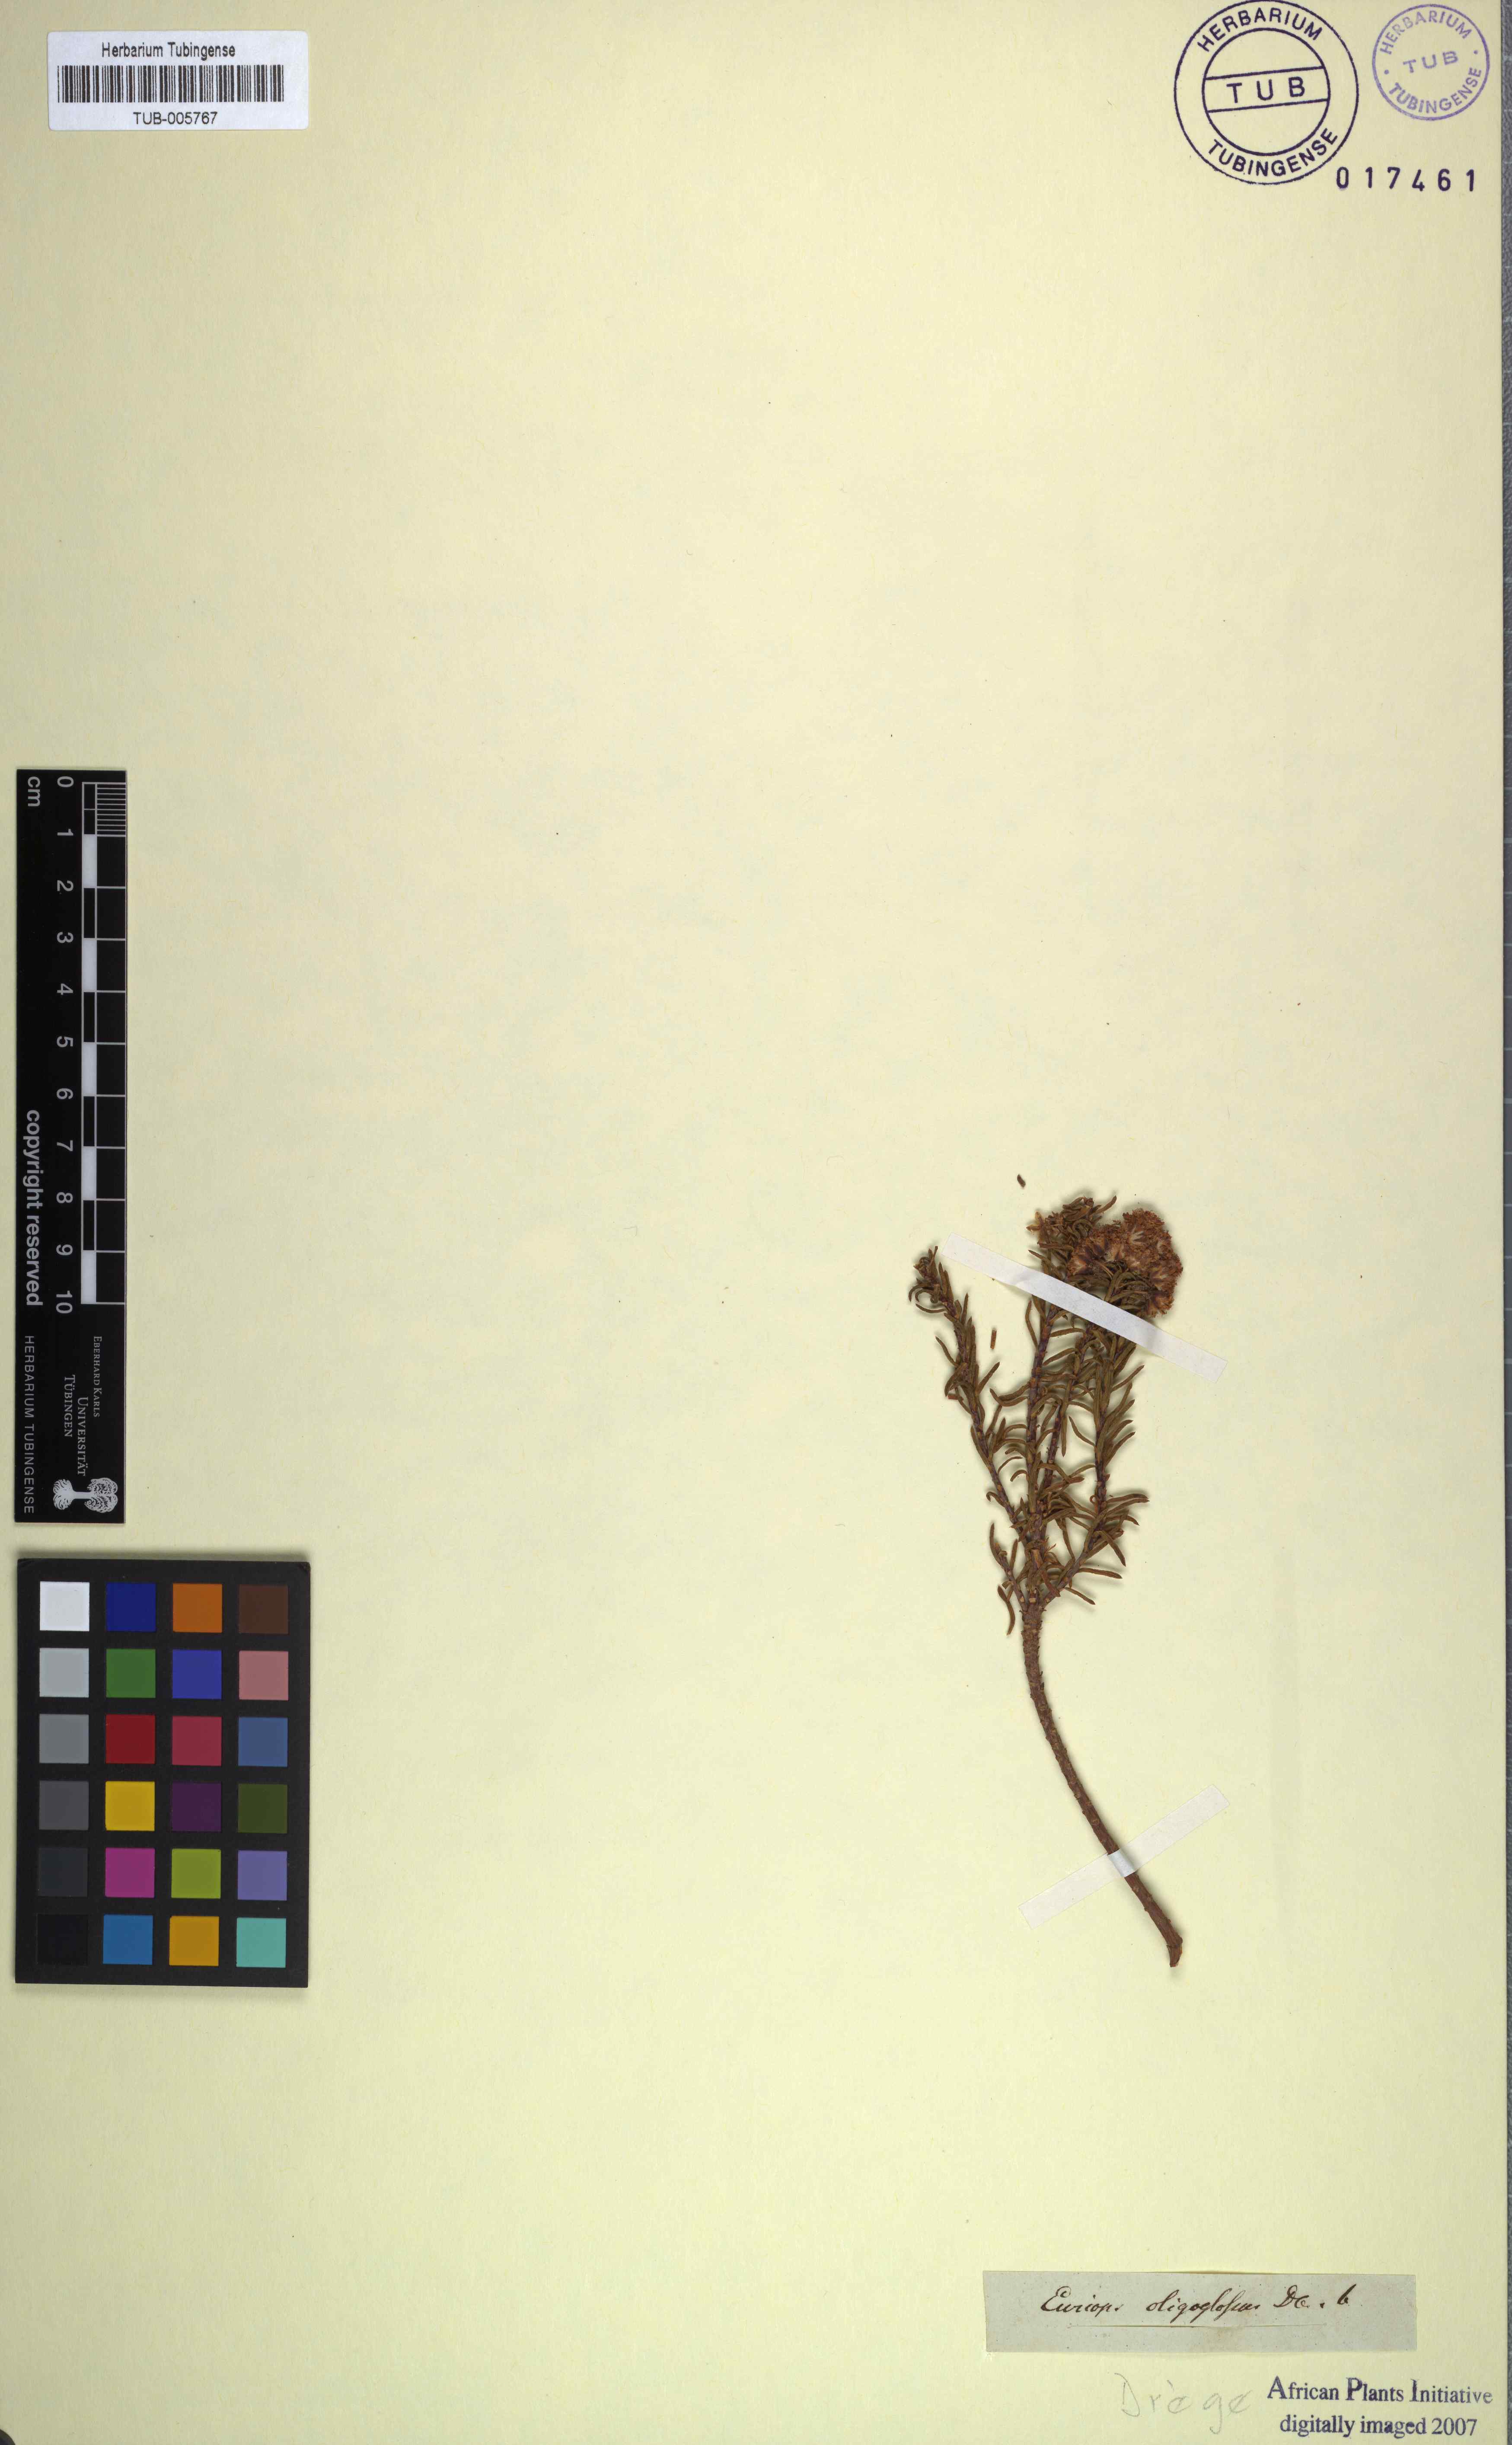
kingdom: Plantae
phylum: Tracheophyta
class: Magnoliopsida
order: Asterales
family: Asteraceae
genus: Euryops
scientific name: Euryops oligoglossus
